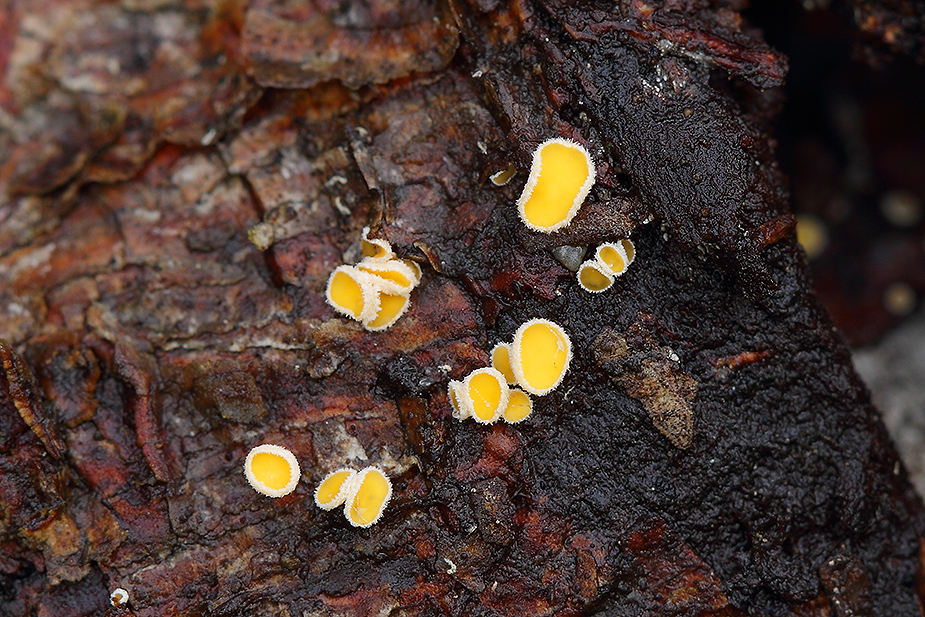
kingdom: Fungi
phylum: Ascomycota
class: Leotiomycetes
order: Helotiales
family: Lachnaceae
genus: Lachnellula
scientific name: Lachnellula subtilissima
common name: gran-frynseskive
